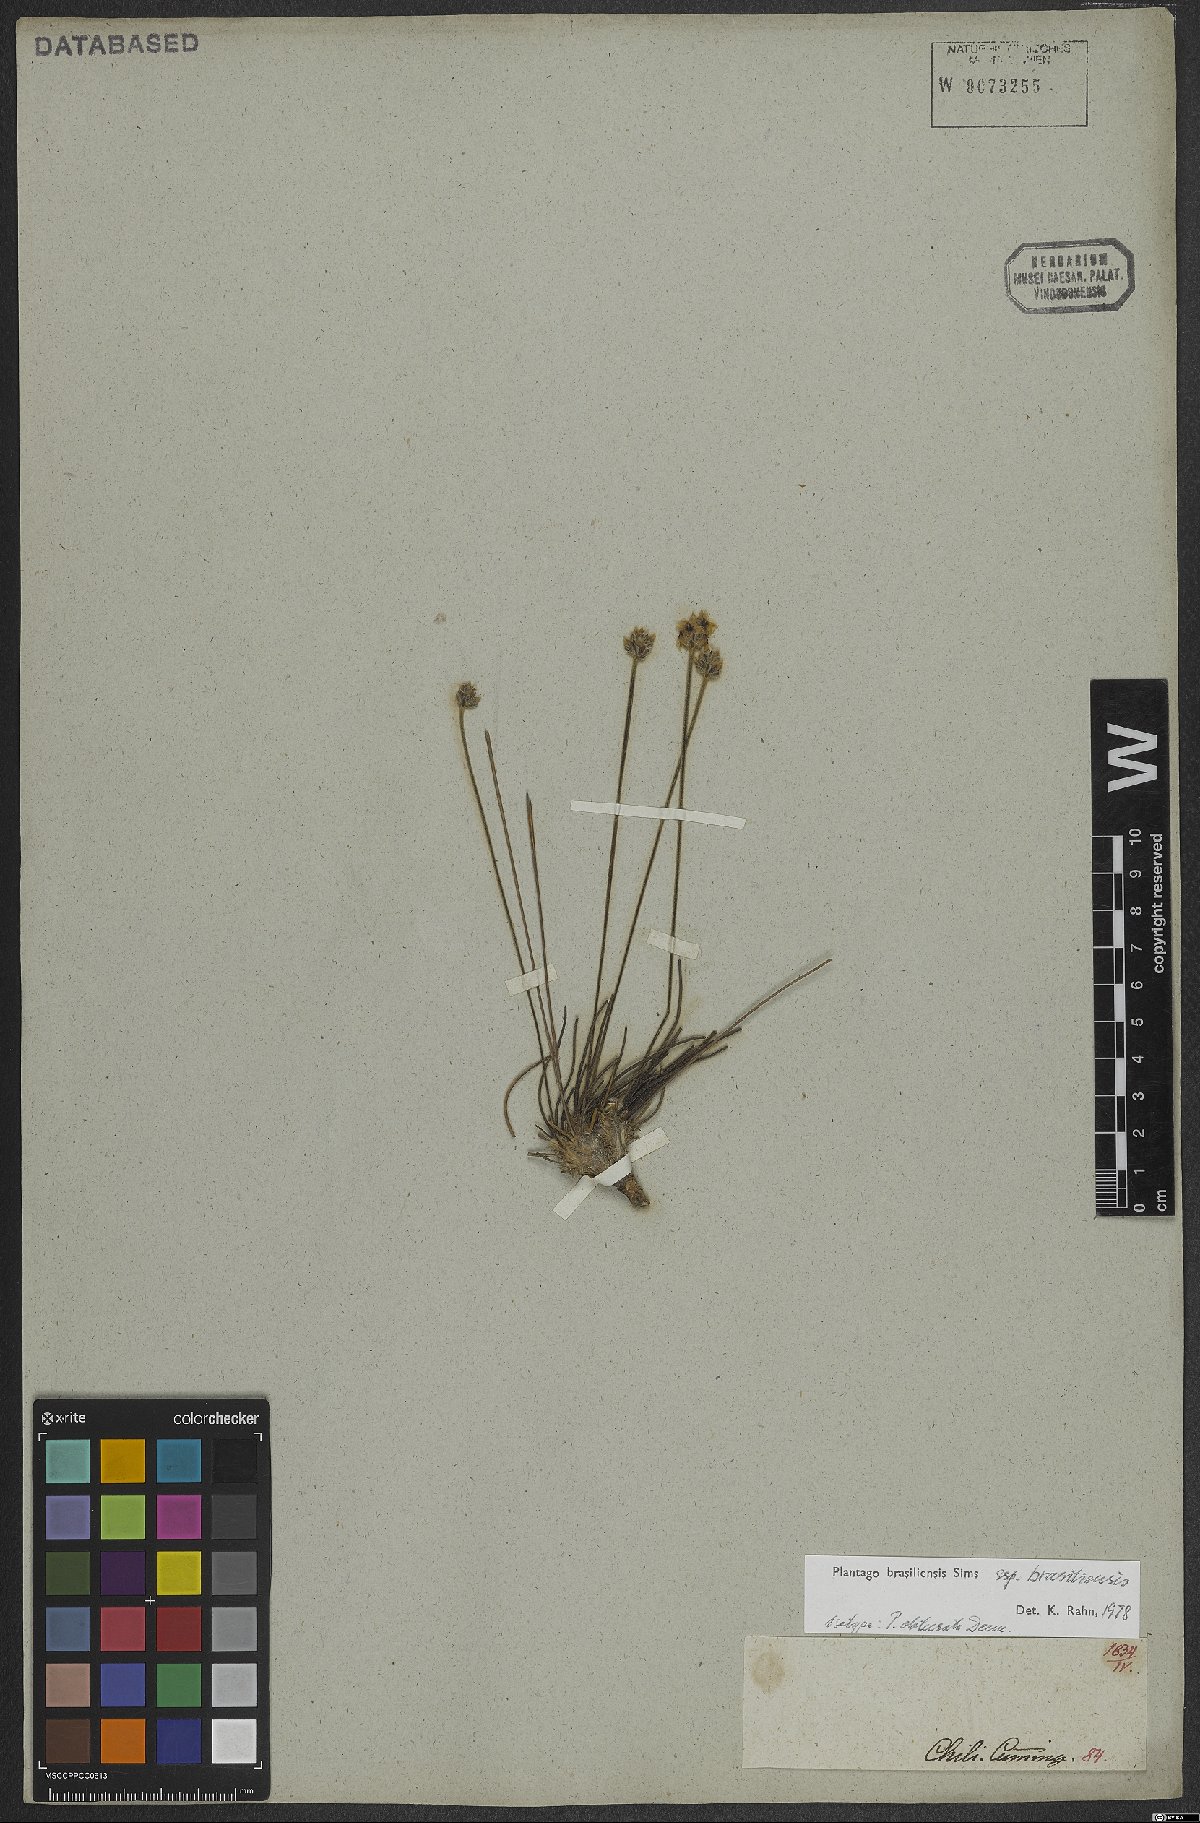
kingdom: Plantae
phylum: Tracheophyta
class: Magnoliopsida
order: Lamiales
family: Plantaginaceae
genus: Plantago
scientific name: Plantago brasiliensis
